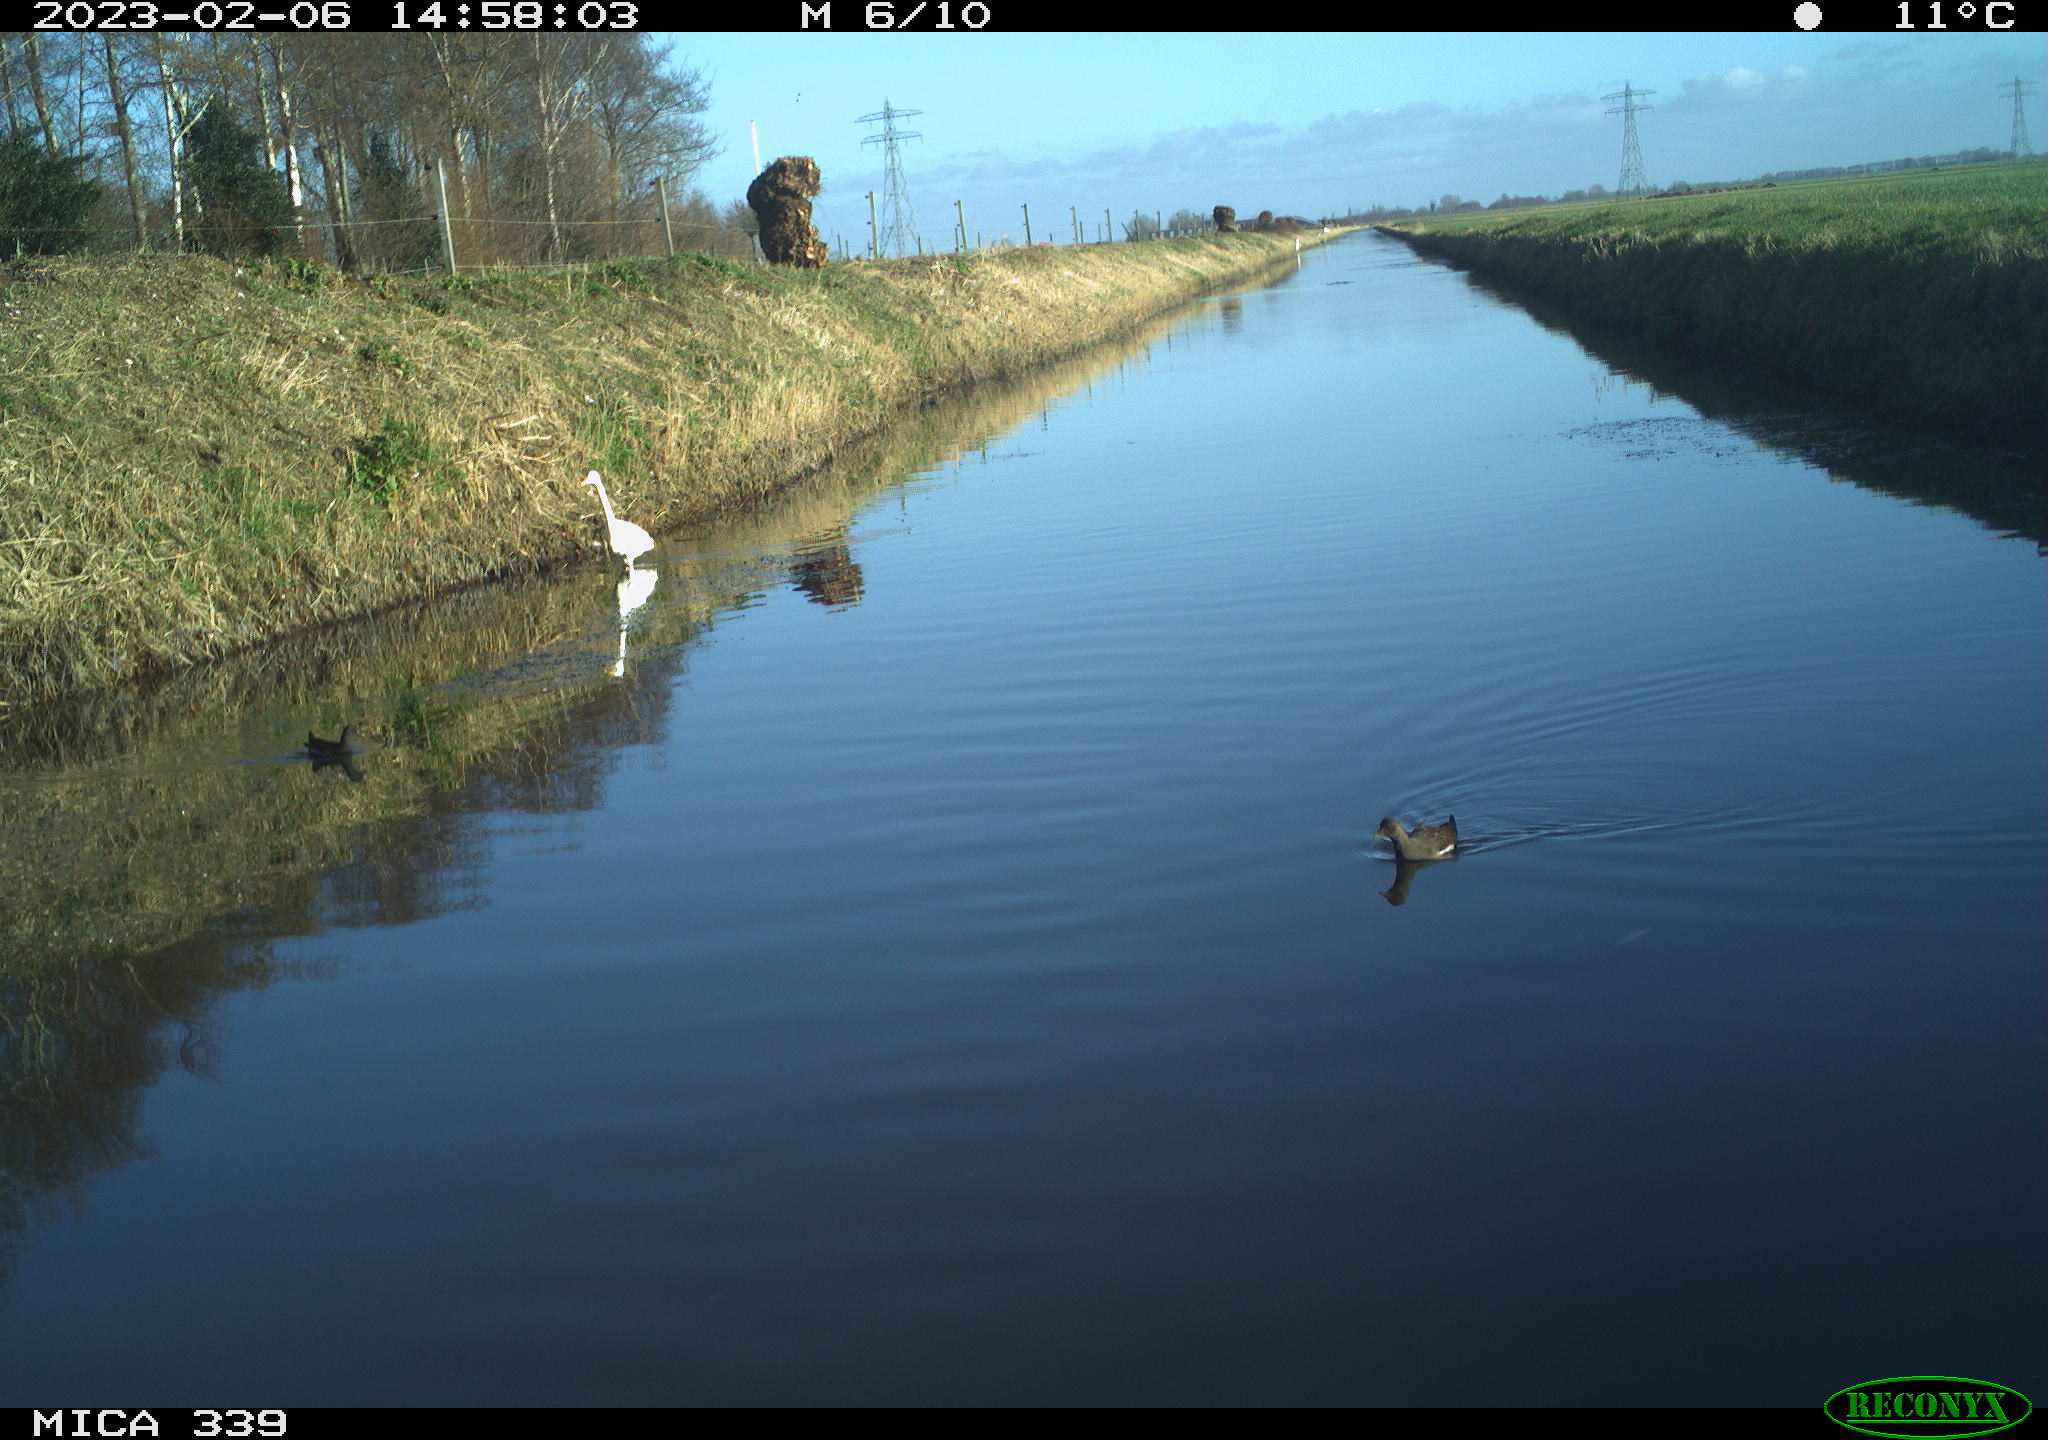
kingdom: Animalia
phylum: Chordata
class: Aves
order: Gruiformes
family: Rallidae
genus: Gallinula
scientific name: Gallinula chloropus
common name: Common moorhen
